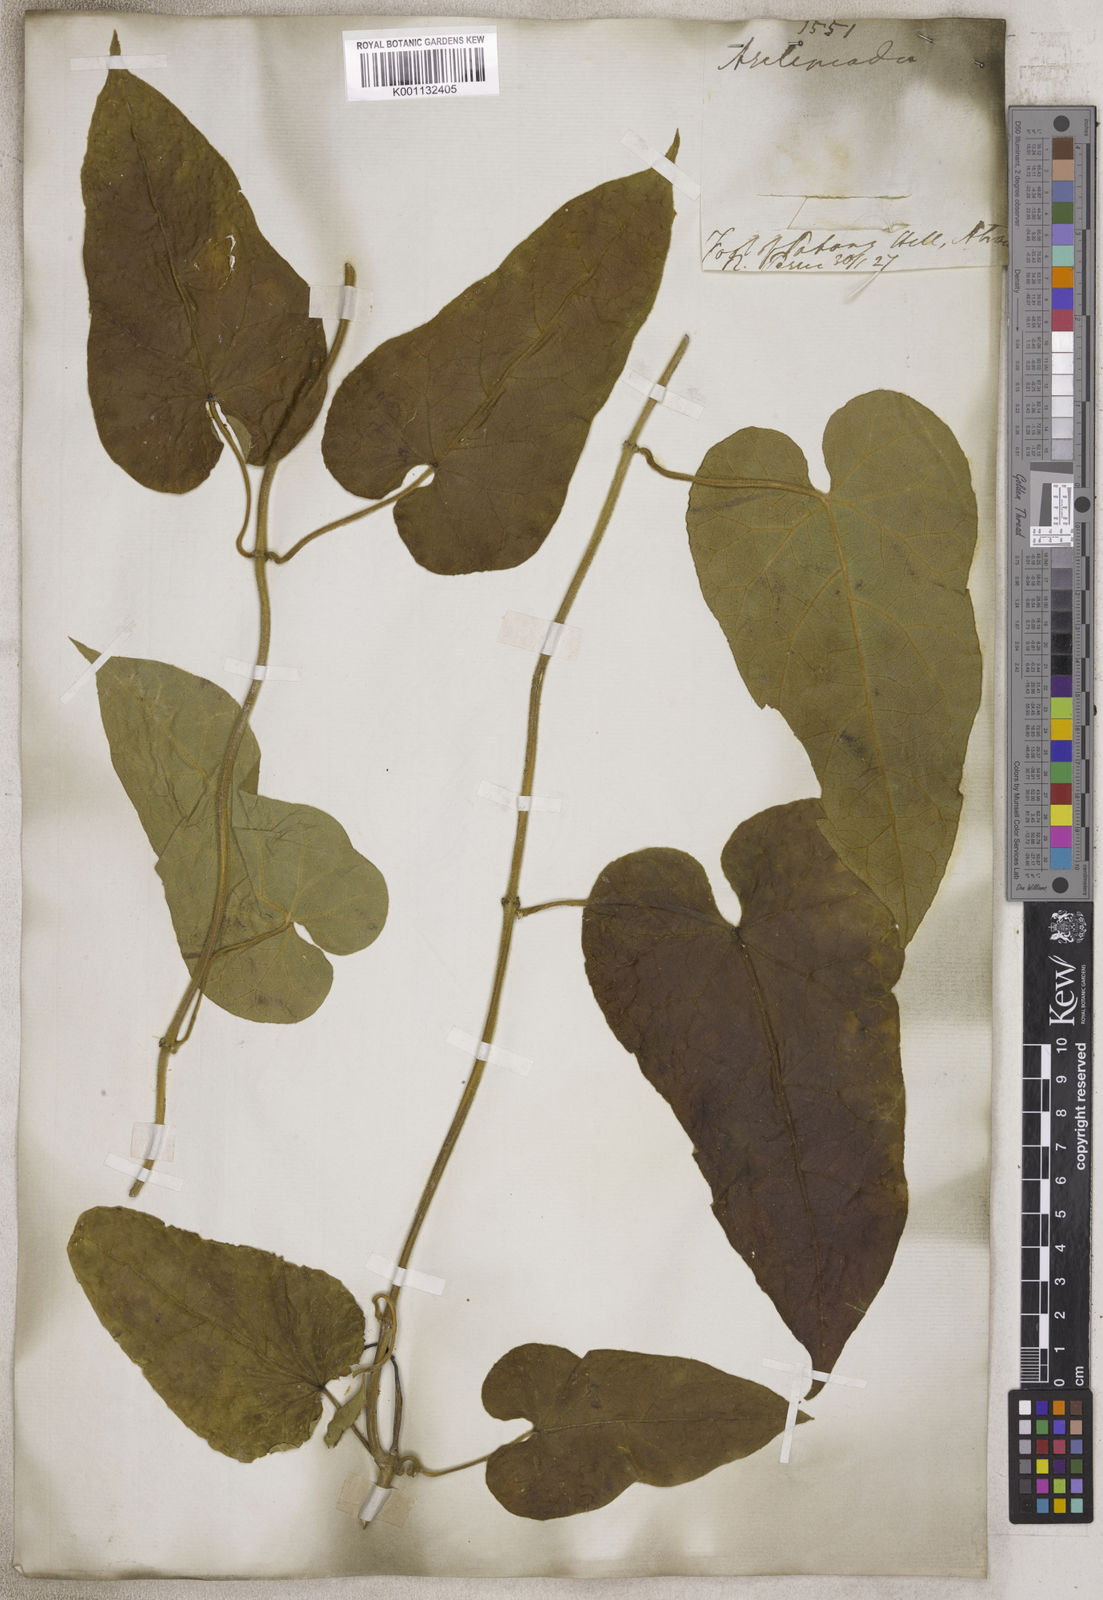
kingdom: Plantae
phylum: Tracheophyta
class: Magnoliopsida
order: Gentianales
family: Apocynaceae
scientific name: Apocynaceae
